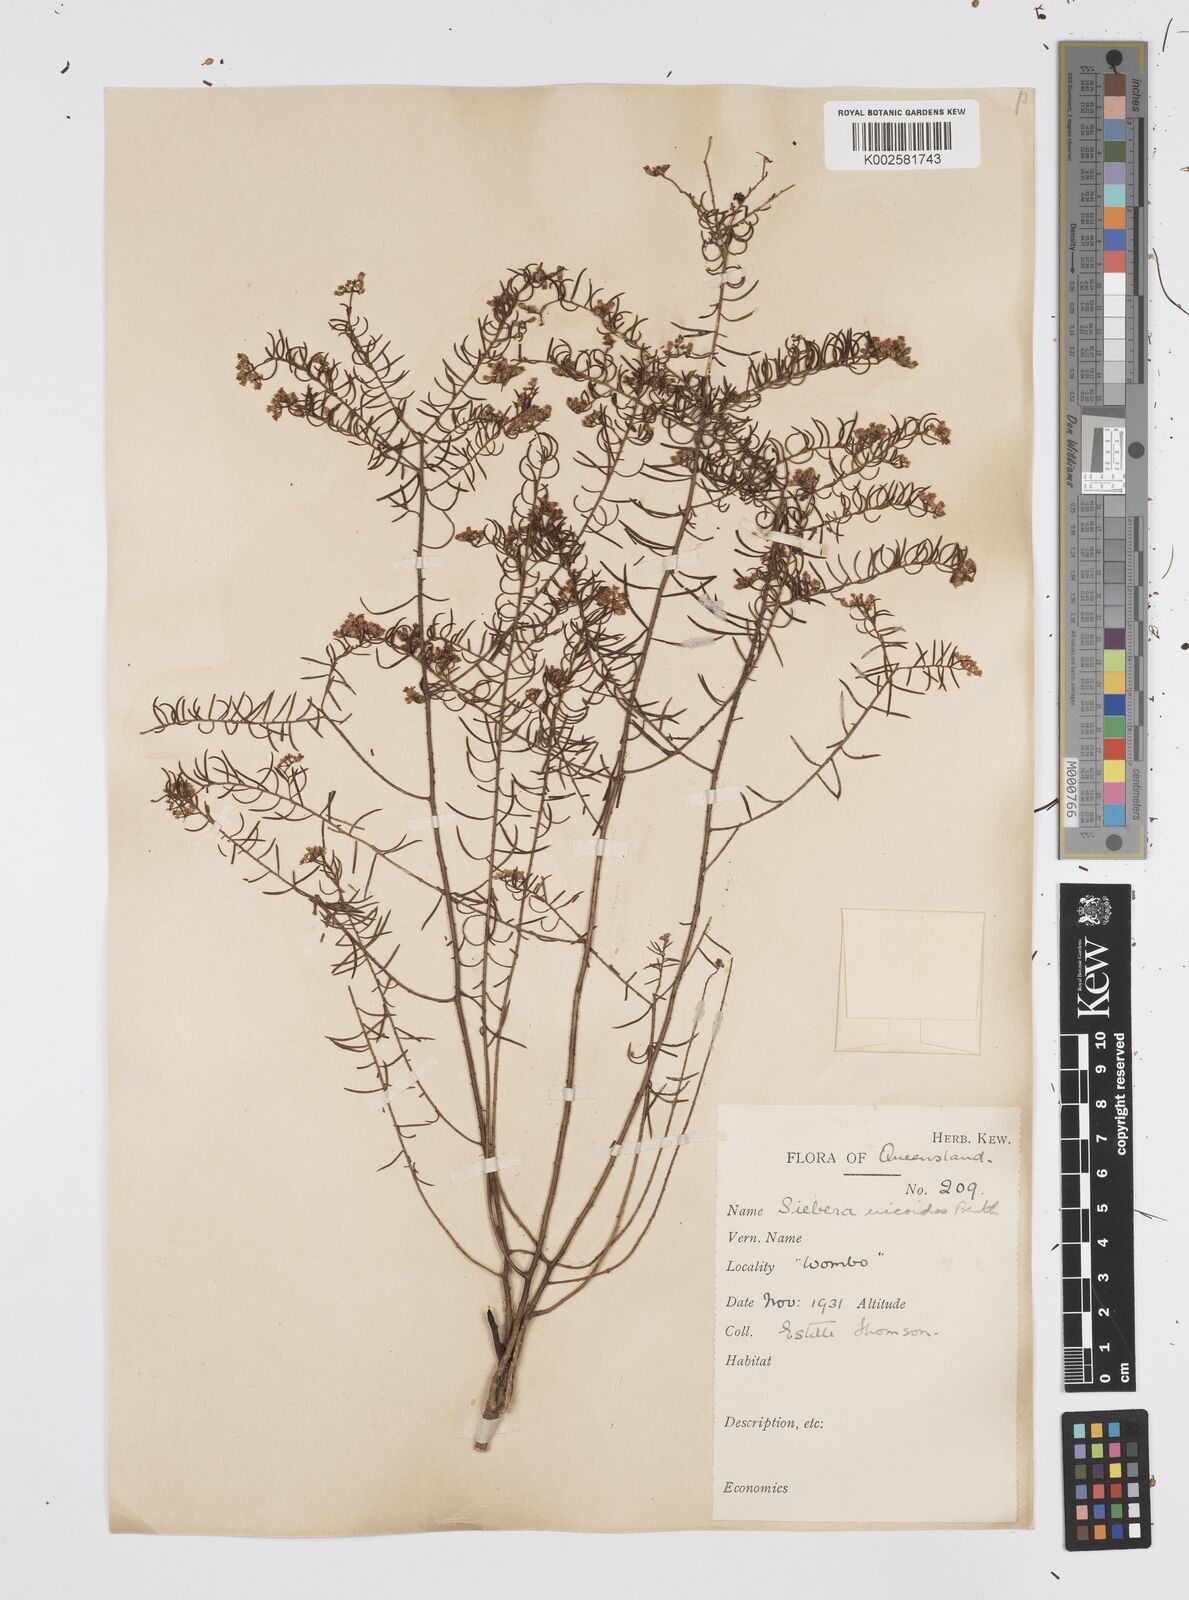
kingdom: Plantae
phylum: Tracheophyta
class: Magnoliopsida
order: Apiales
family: Apiaceae
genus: Platysace
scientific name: Platysace ericoides
